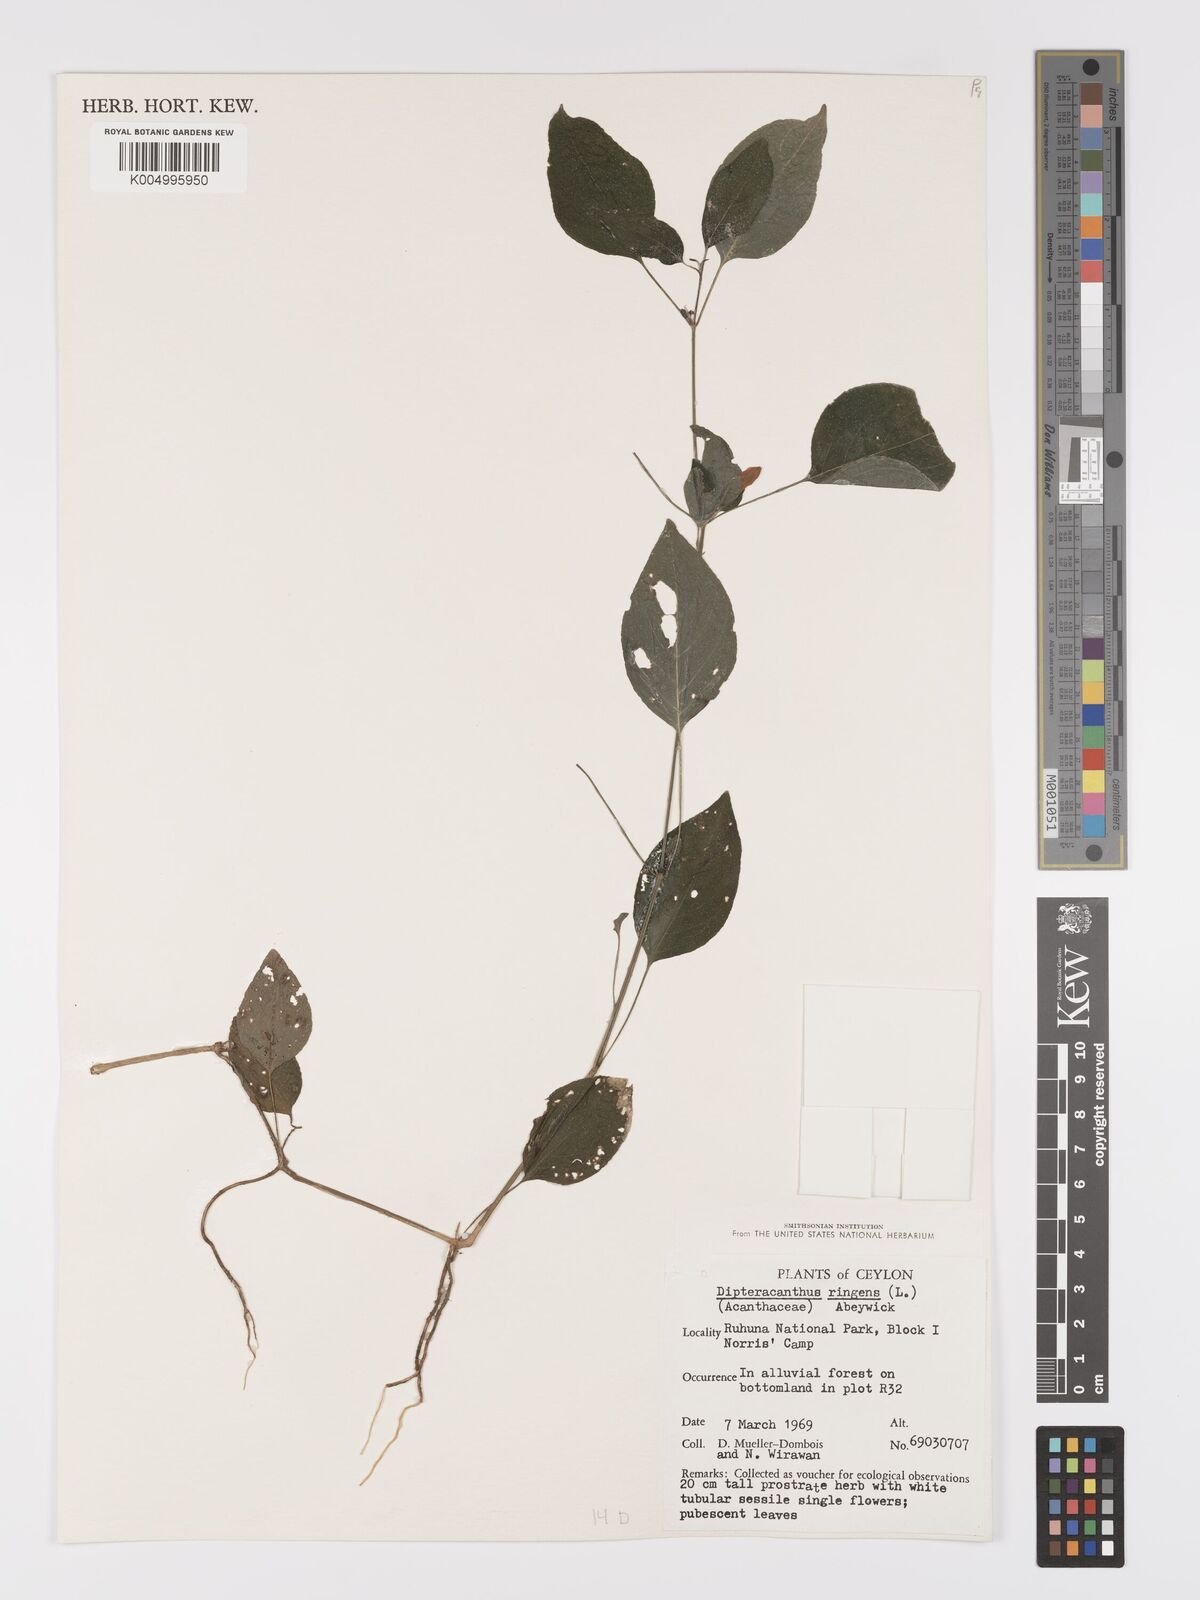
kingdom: Plantae
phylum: Tracheophyta
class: Magnoliopsida
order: Lamiales
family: Acanthaceae
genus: Ruellia
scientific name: Ruellia
